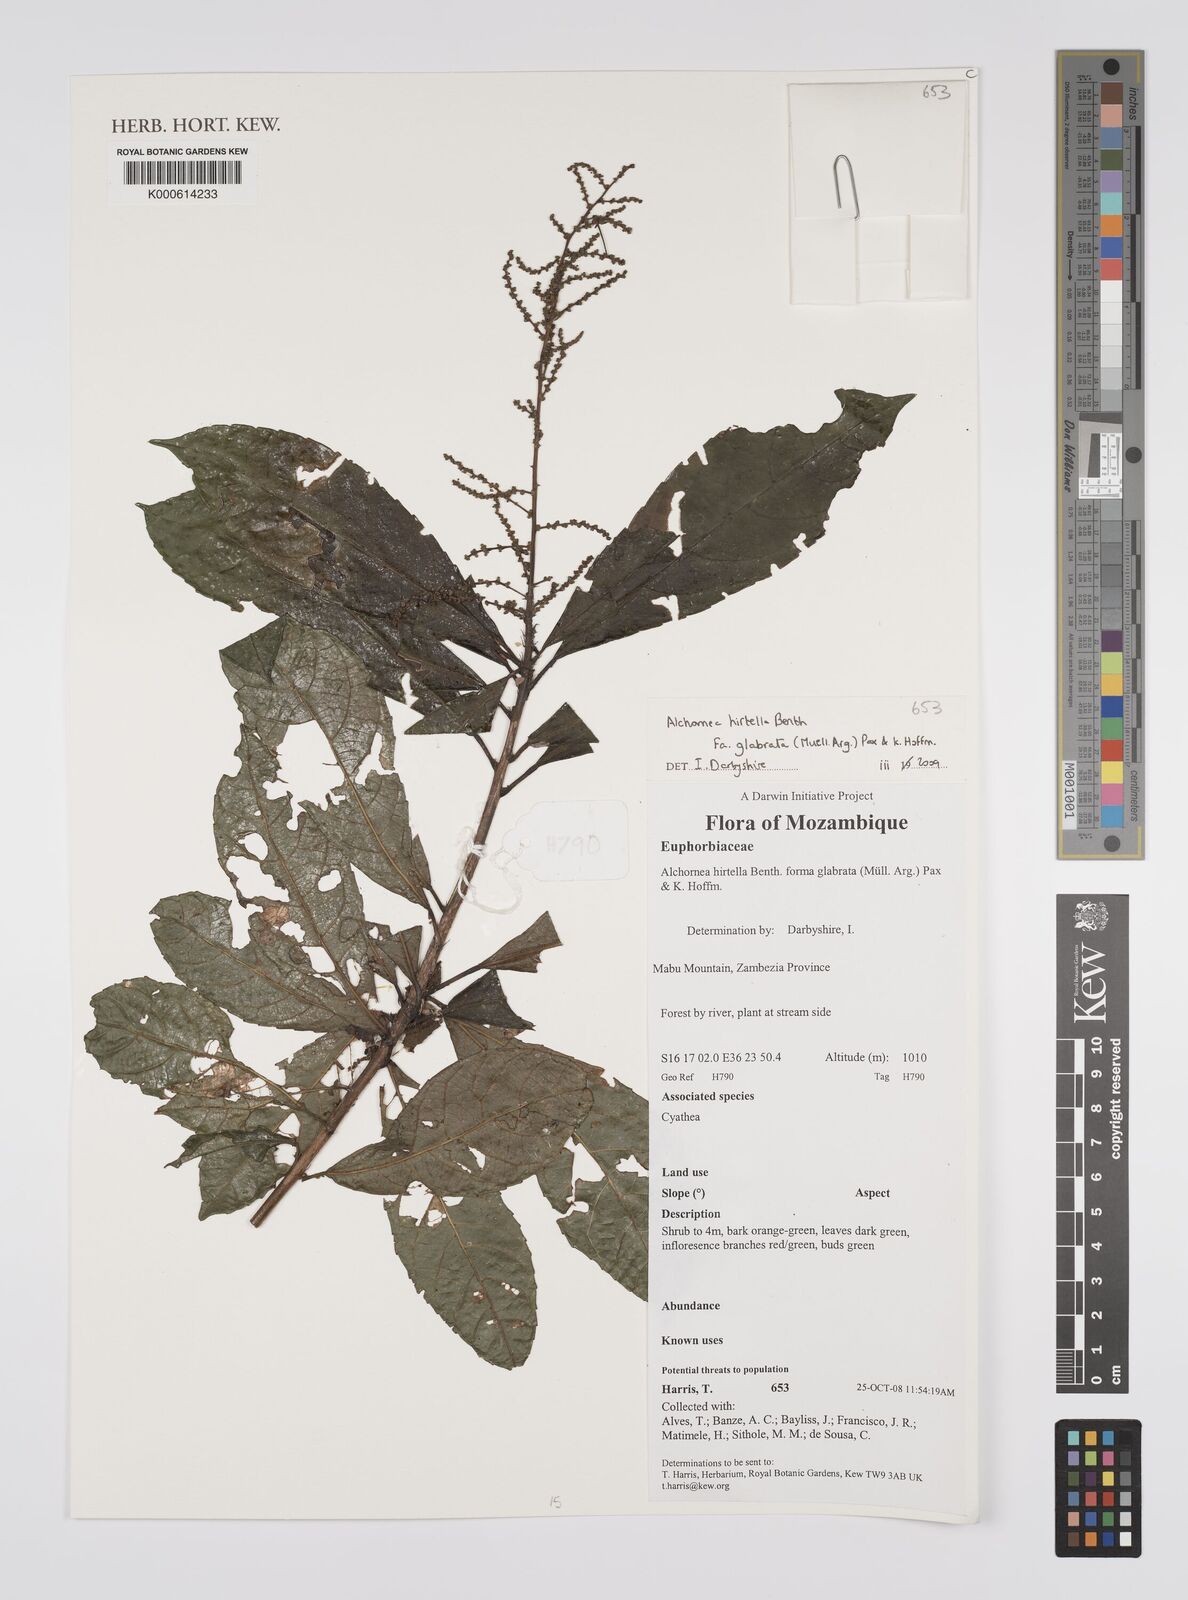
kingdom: Plantae
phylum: Tracheophyta
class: Magnoliopsida
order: Malpighiales
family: Euphorbiaceae
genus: Alchornea
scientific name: Alchornea hirtella
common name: Forest bead-string
